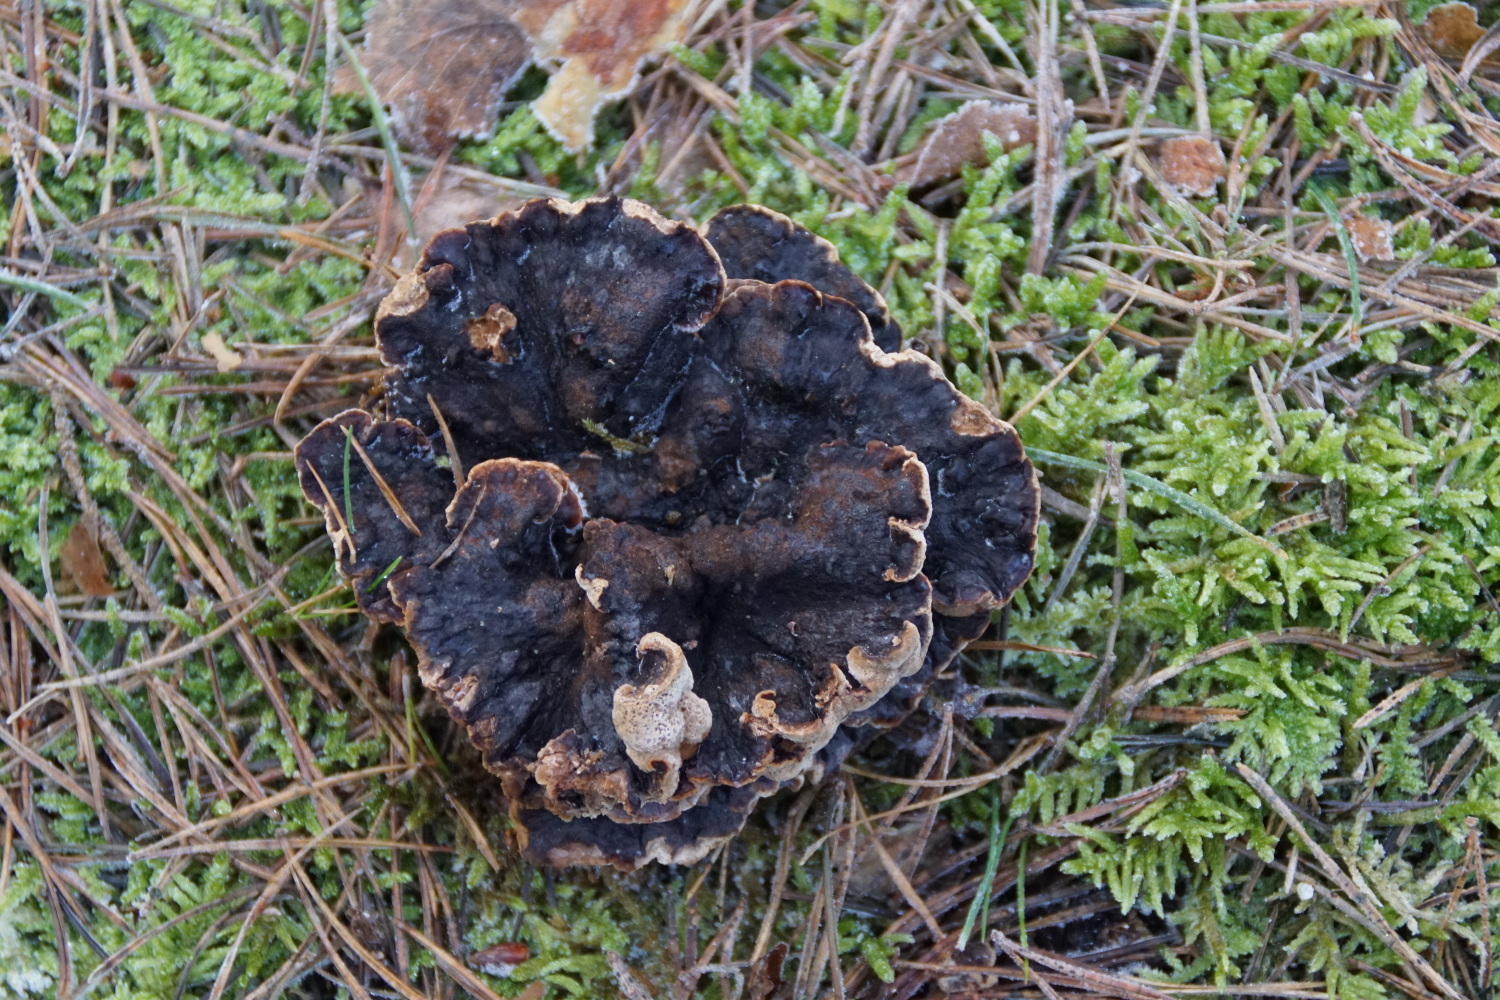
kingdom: Fungi
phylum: Basidiomycota
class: Agaricomycetes
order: Polyporales
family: Ischnodermataceae
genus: Ischnoderma
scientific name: Ischnoderma benzoinum
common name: gran-tjæreporesvamp
